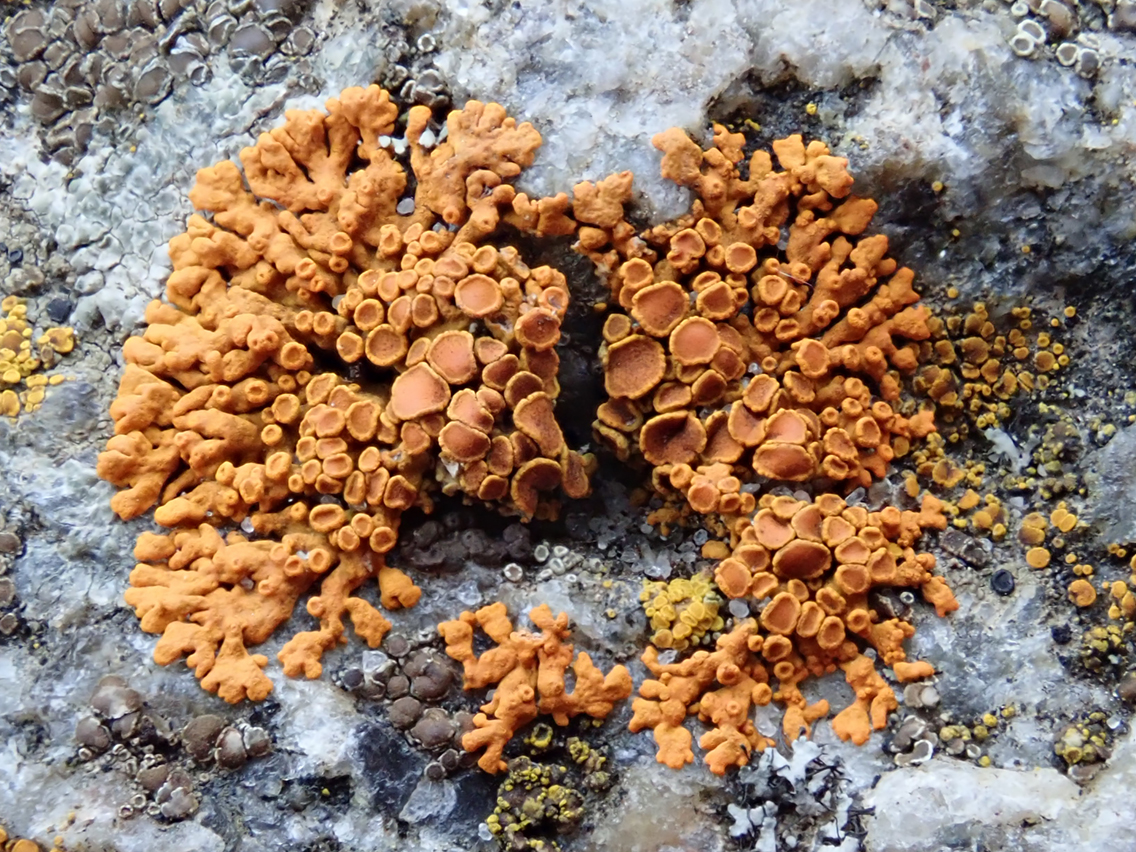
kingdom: Fungi
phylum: Ascomycota
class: Lecanoromycetes
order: Teloschistales
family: Teloschistaceae
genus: Xanthoria
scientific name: Xanthoria elegans
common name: fjeld-væggelav
